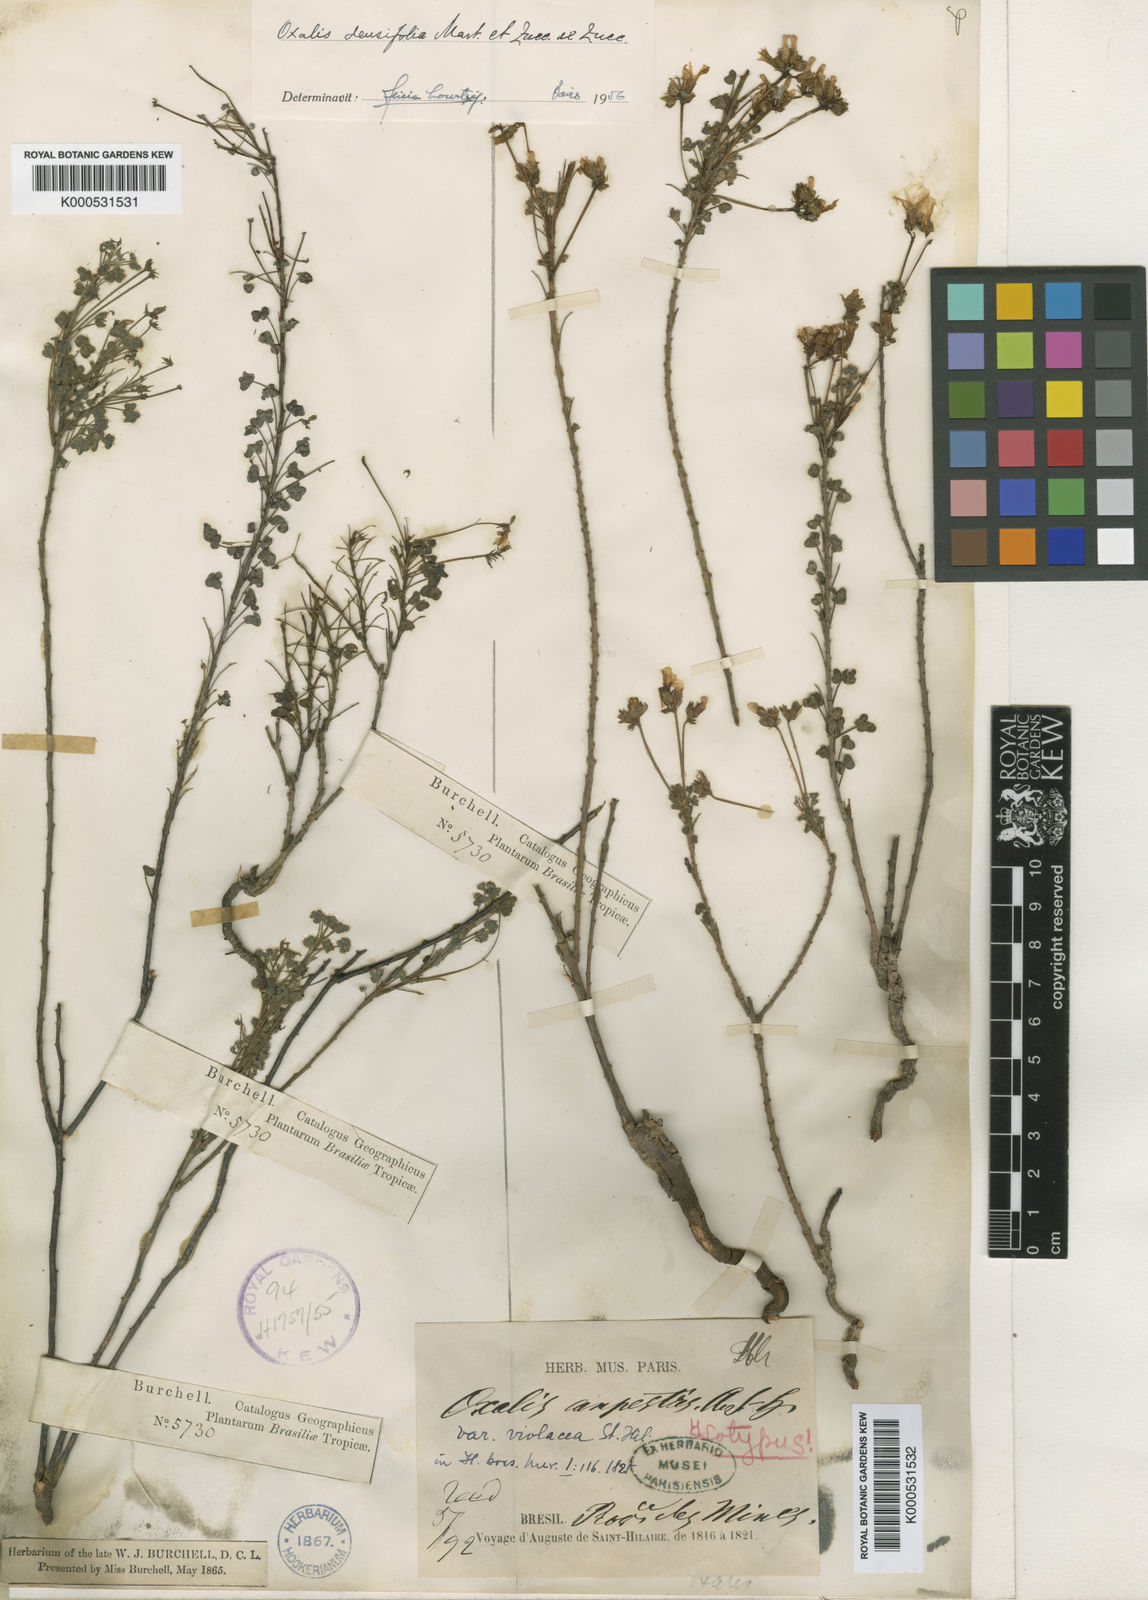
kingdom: Plantae
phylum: Tracheophyta
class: Magnoliopsida
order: Oxalidales
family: Oxalidaceae
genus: Oxalis
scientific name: Oxalis densifolia
